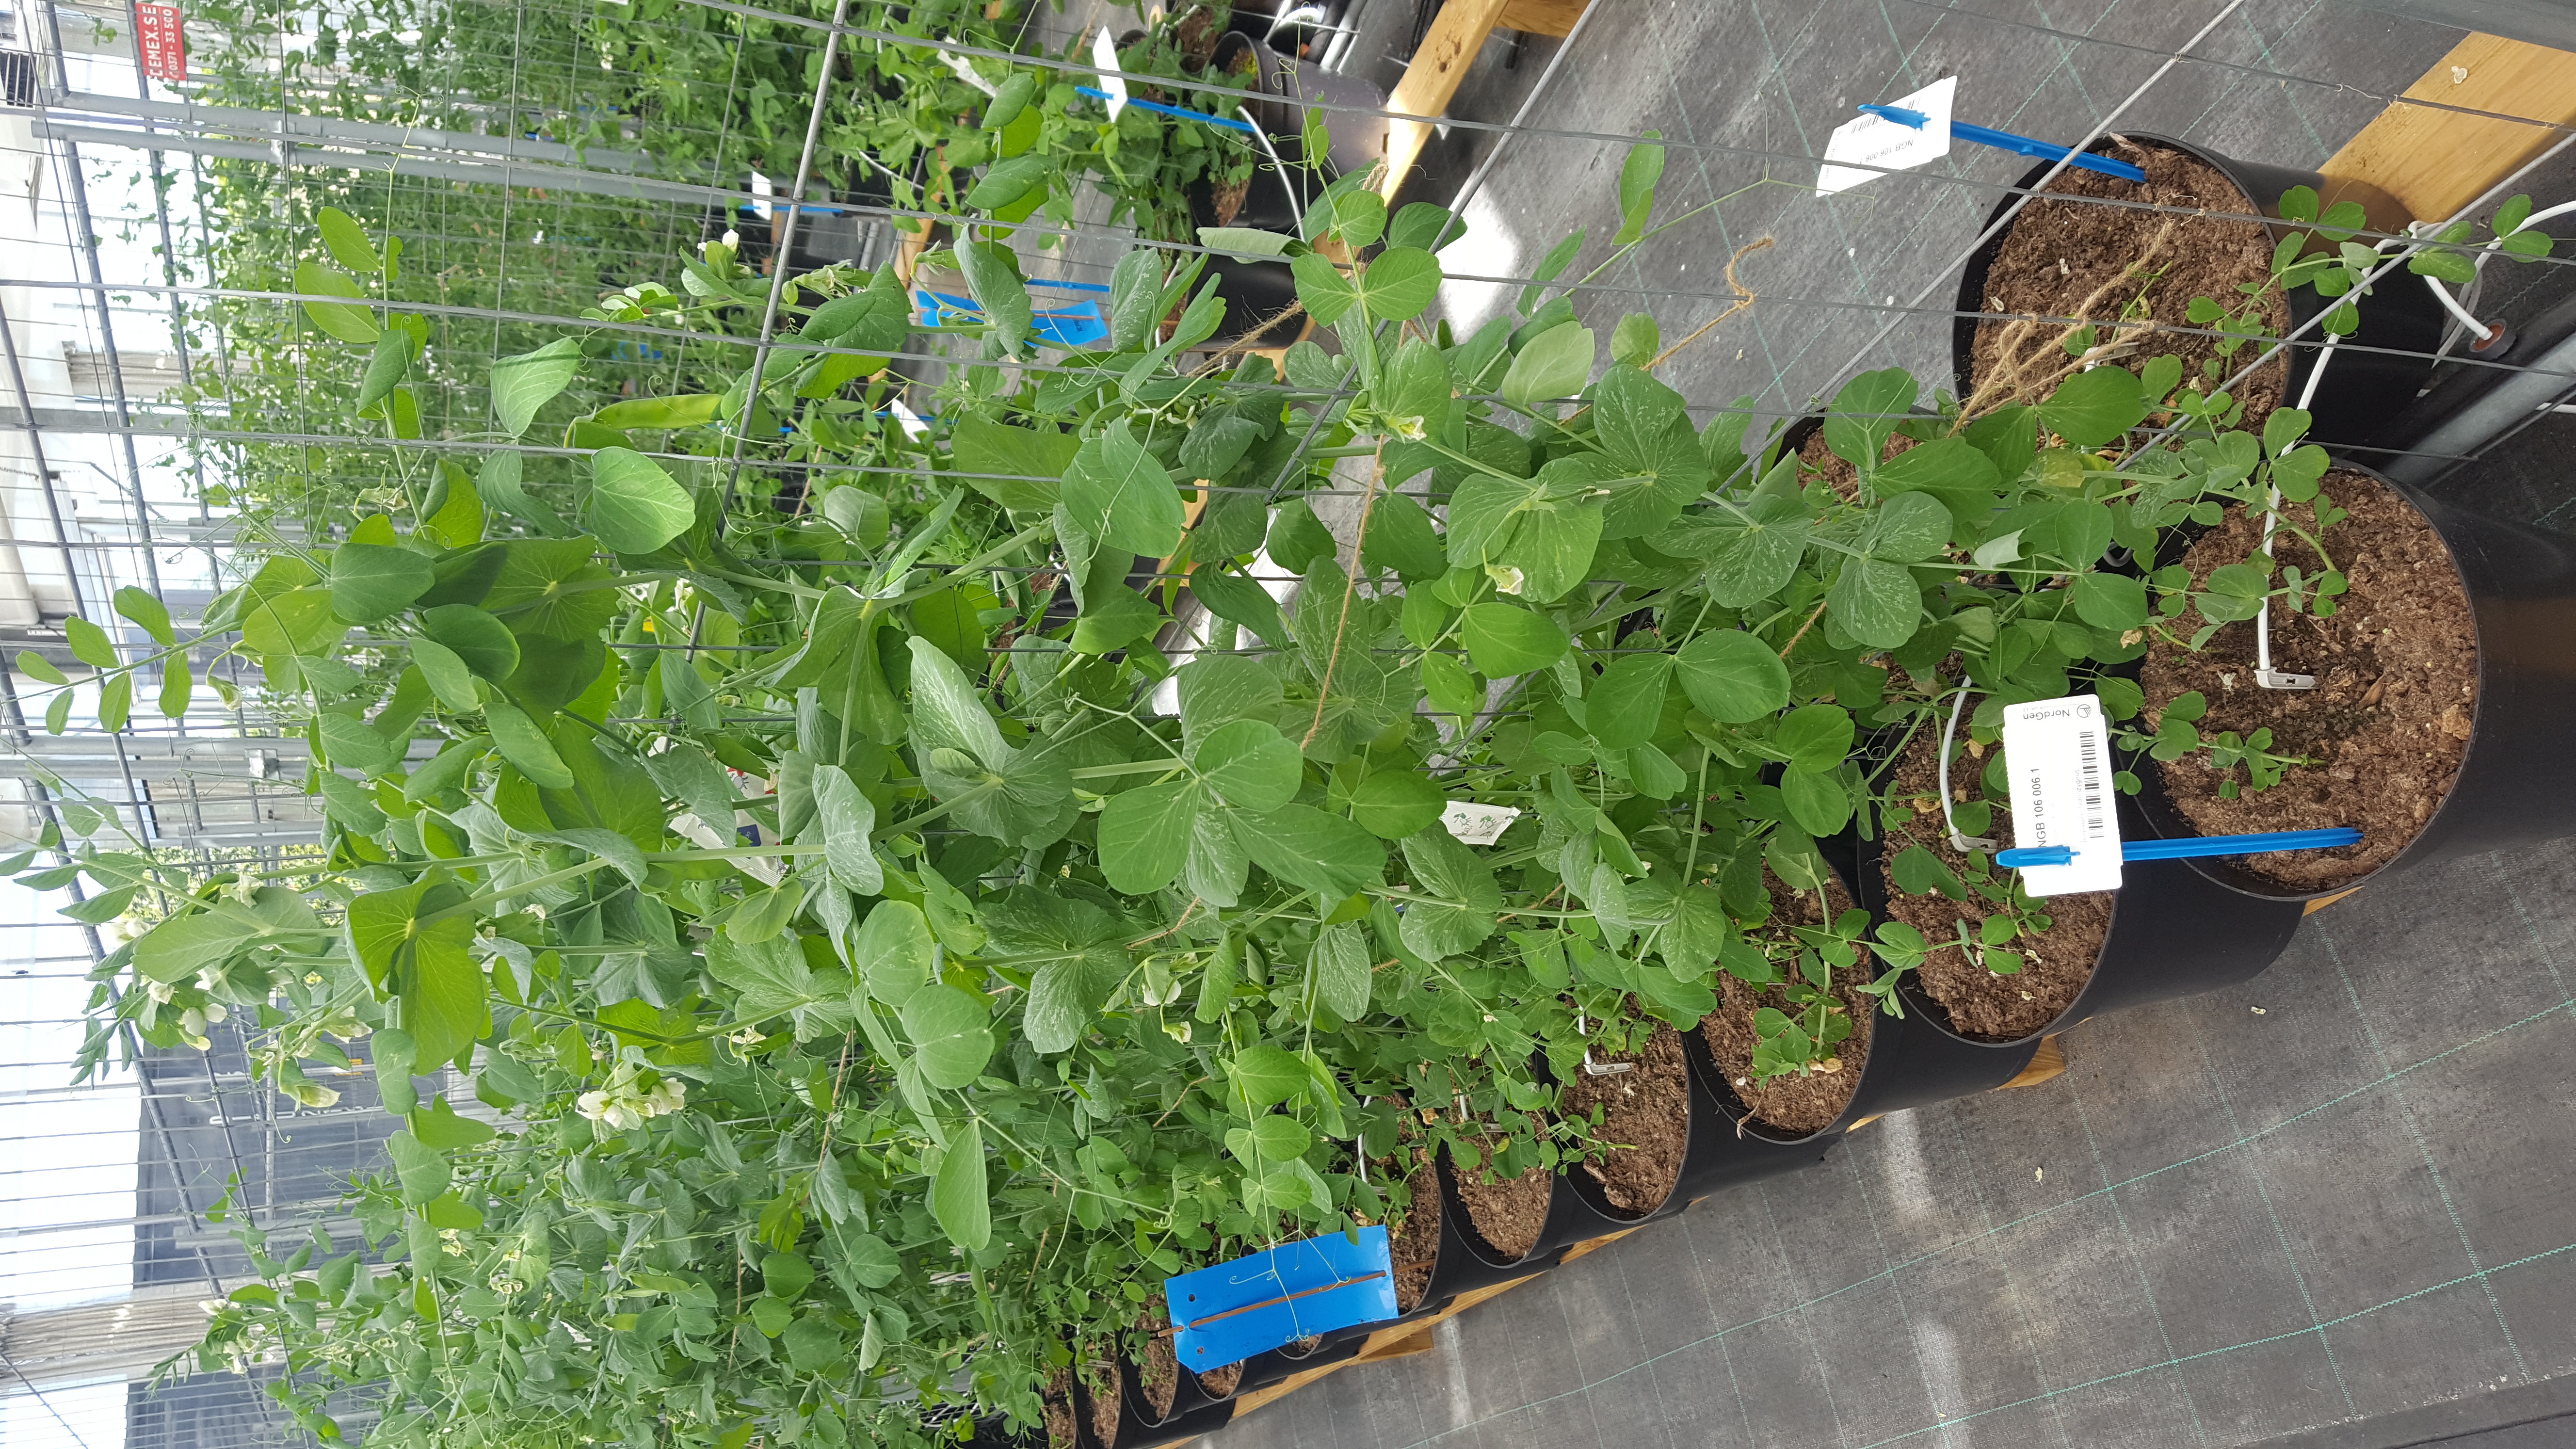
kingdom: Plantae
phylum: Tracheophyta
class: Magnoliopsida
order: Fabales
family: Fabaceae
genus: Lathyrus
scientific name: Lathyrus oleraceus
